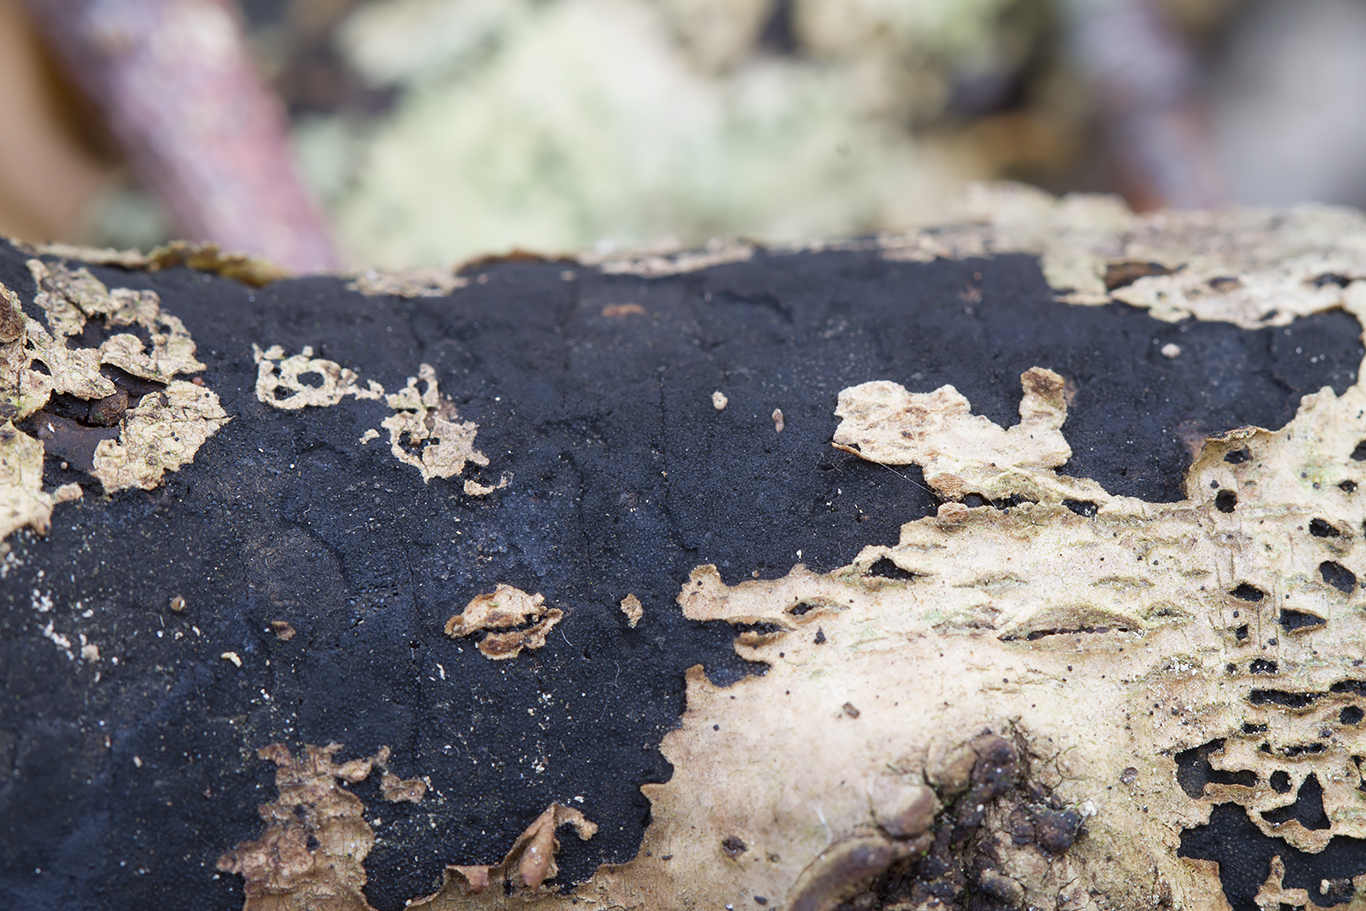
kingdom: Fungi
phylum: Ascomycota
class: Sordariomycetes
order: Xylariales
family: Diatrypaceae
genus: Eutypa
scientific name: Eutypa lata
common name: almindelig kulskorpe
